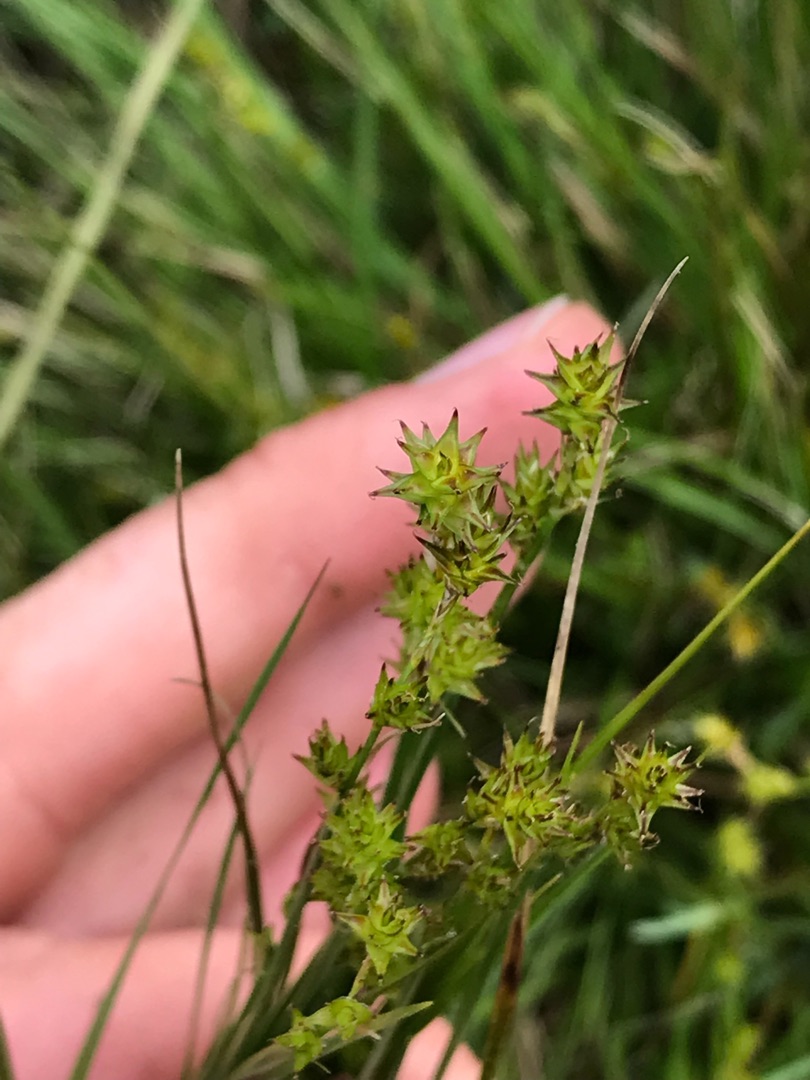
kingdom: Plantae
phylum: Tracheophyta
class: Liliopsida
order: Poales
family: Cyperaceae
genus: Carex
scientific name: Carex echinata
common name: Stjerne-star
